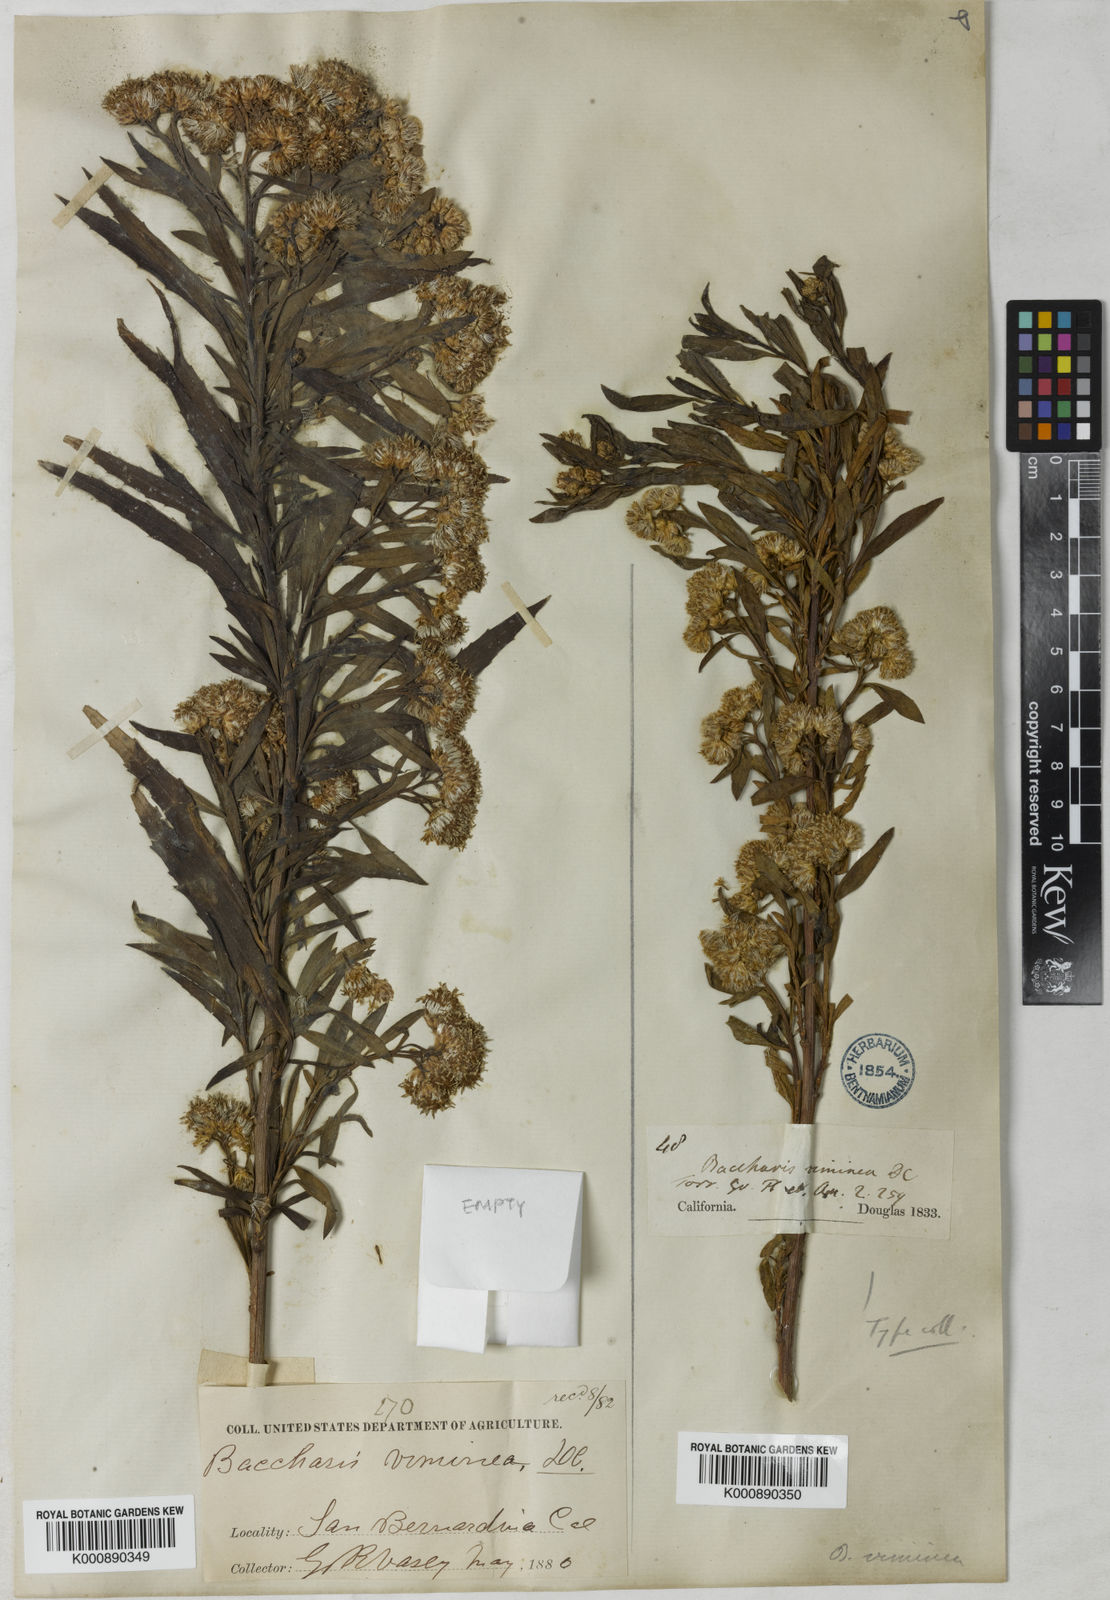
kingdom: Plantae
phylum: Tracheophyta
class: Magnoliopsida
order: Asterales
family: Asteraceae
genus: Baccharis
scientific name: Baccharis salicifolia
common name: Sticky baccharis
